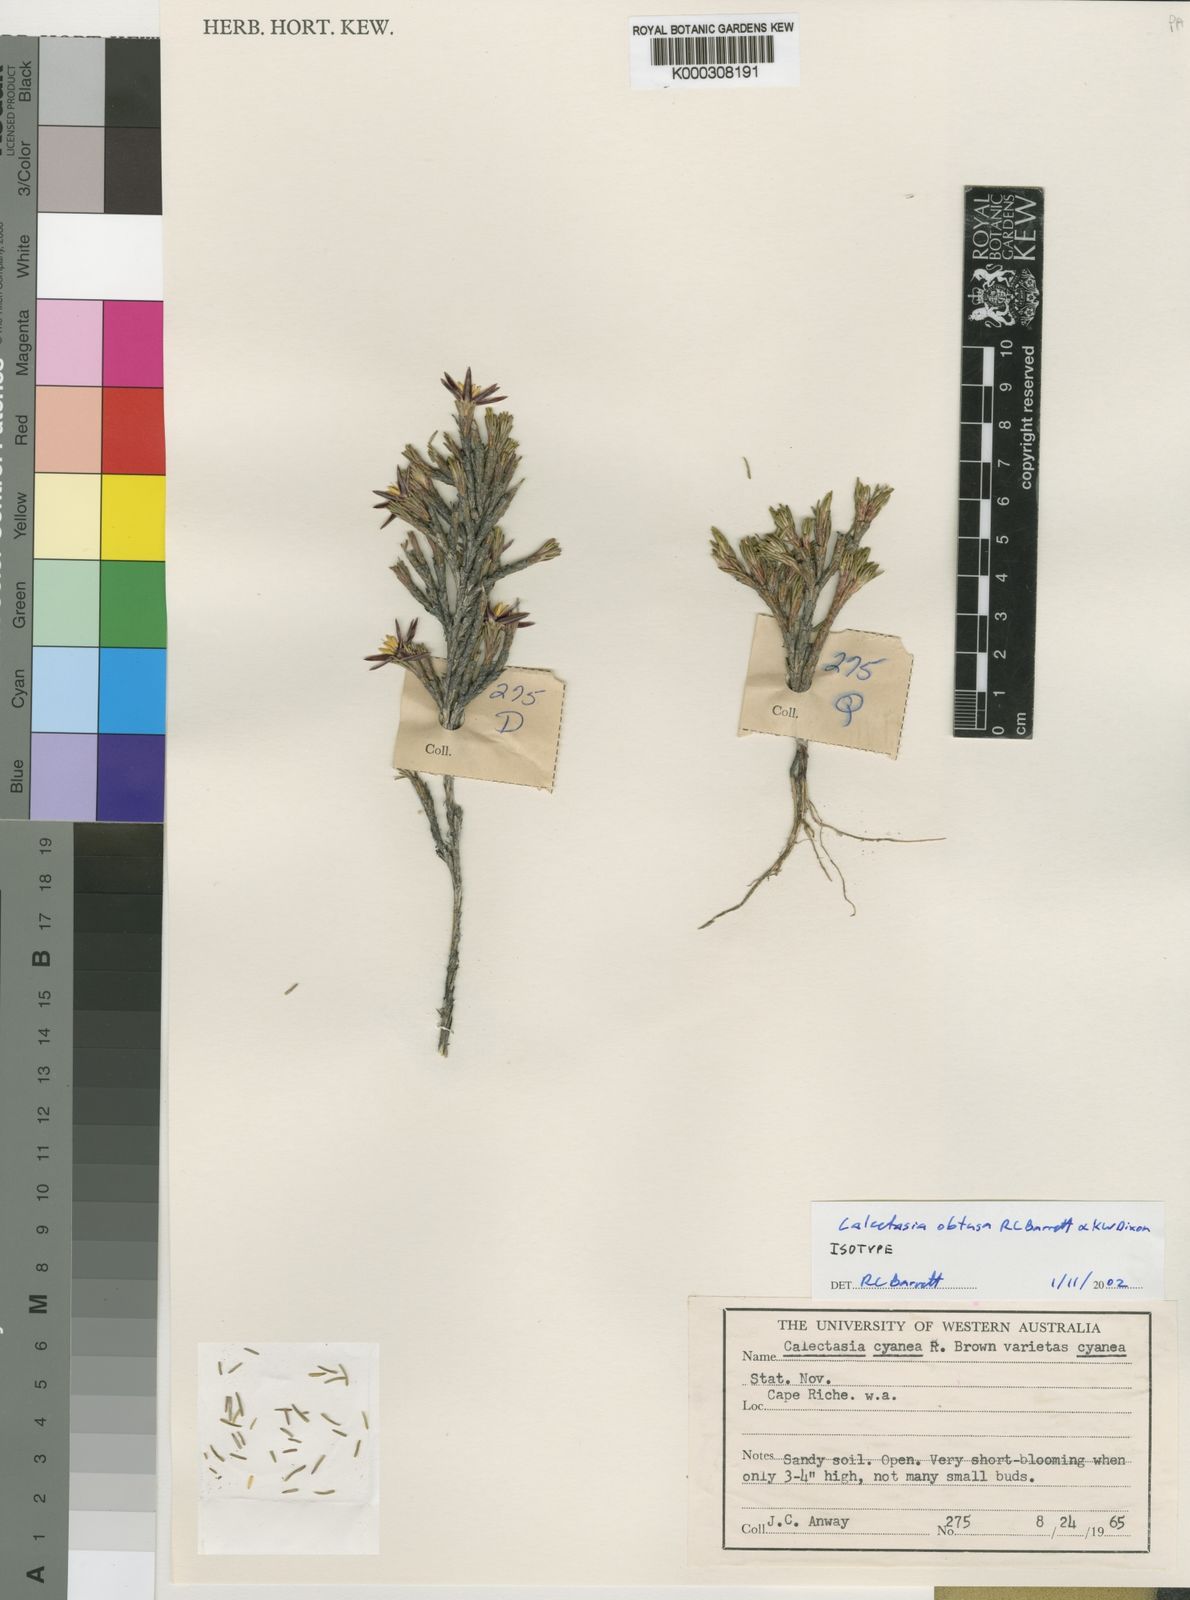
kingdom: Plantae
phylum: Tracheophyta
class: Liliopsida
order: Arecales
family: Dasypogonaceae
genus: Calectasia
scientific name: Calectasia obtusa
